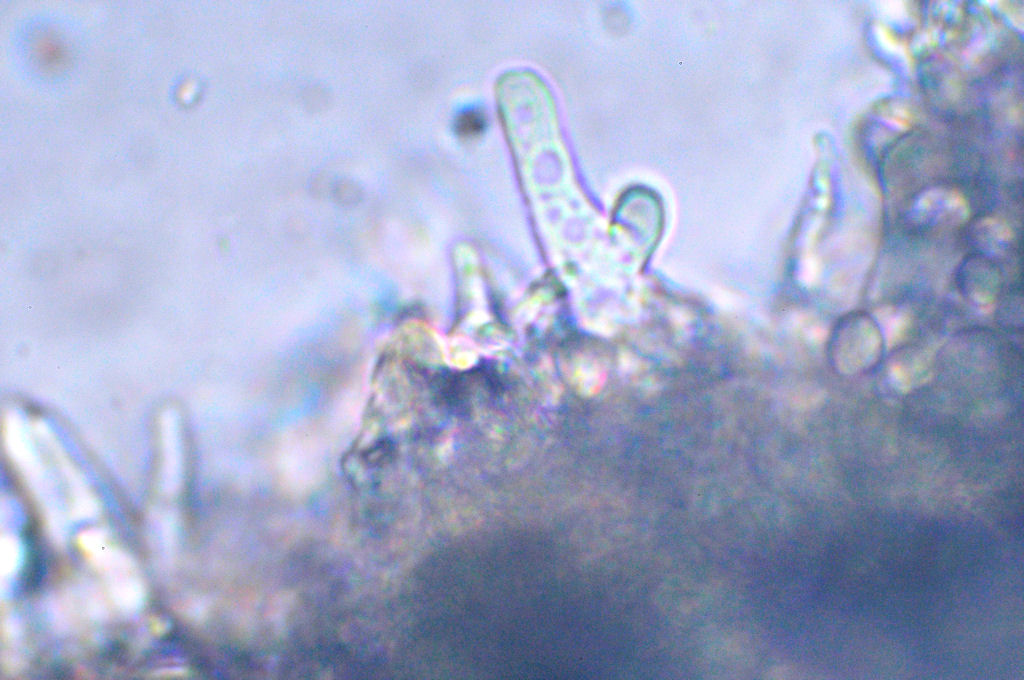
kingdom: Fungi
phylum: Basidiomycota
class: Agaricomycetes
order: Agaricales
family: Mycenaceae
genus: Mycena
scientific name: Mycena
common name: huesvamp
